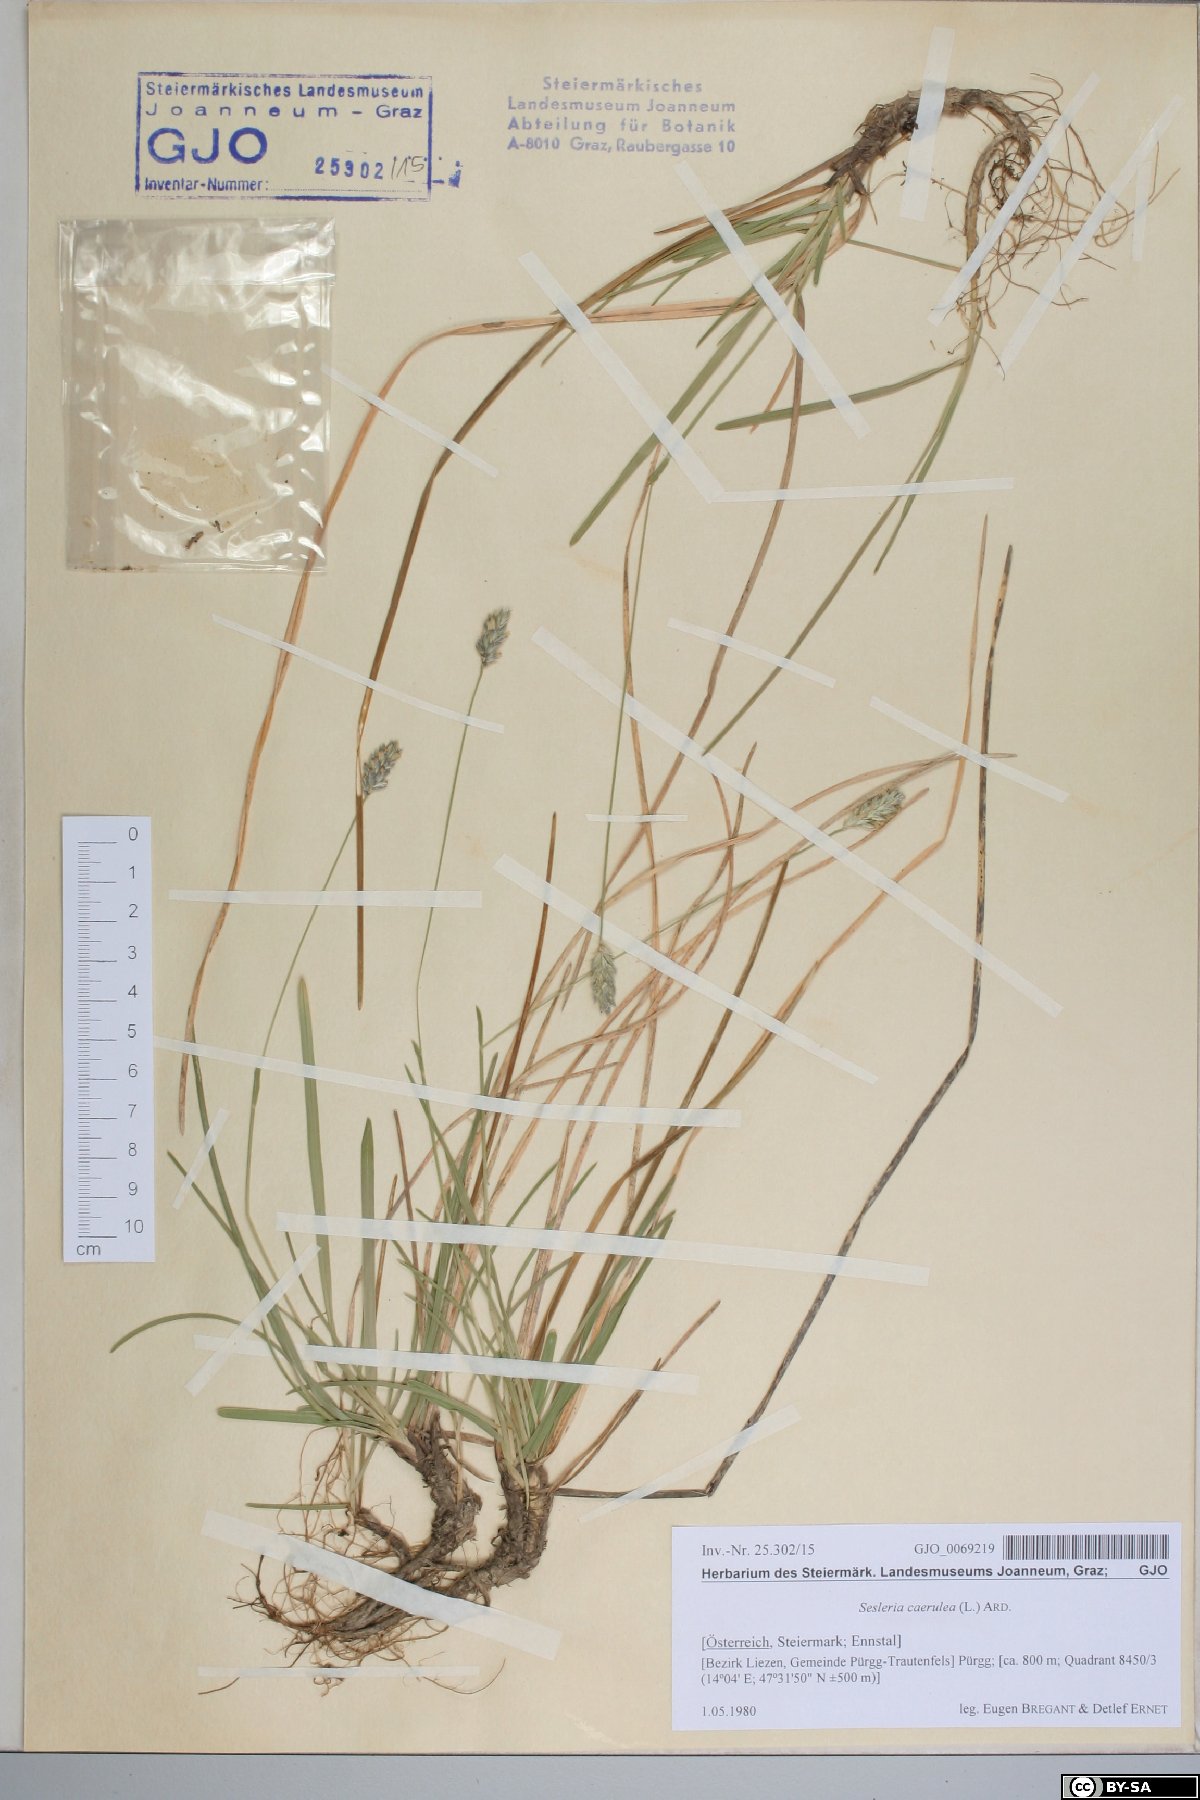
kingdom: Plantae
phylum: Tracheophyta
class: Liliopsida
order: Poales
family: Poaceae
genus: Sesleria
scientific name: Sesleria caerulea
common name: Blue moor-grass
